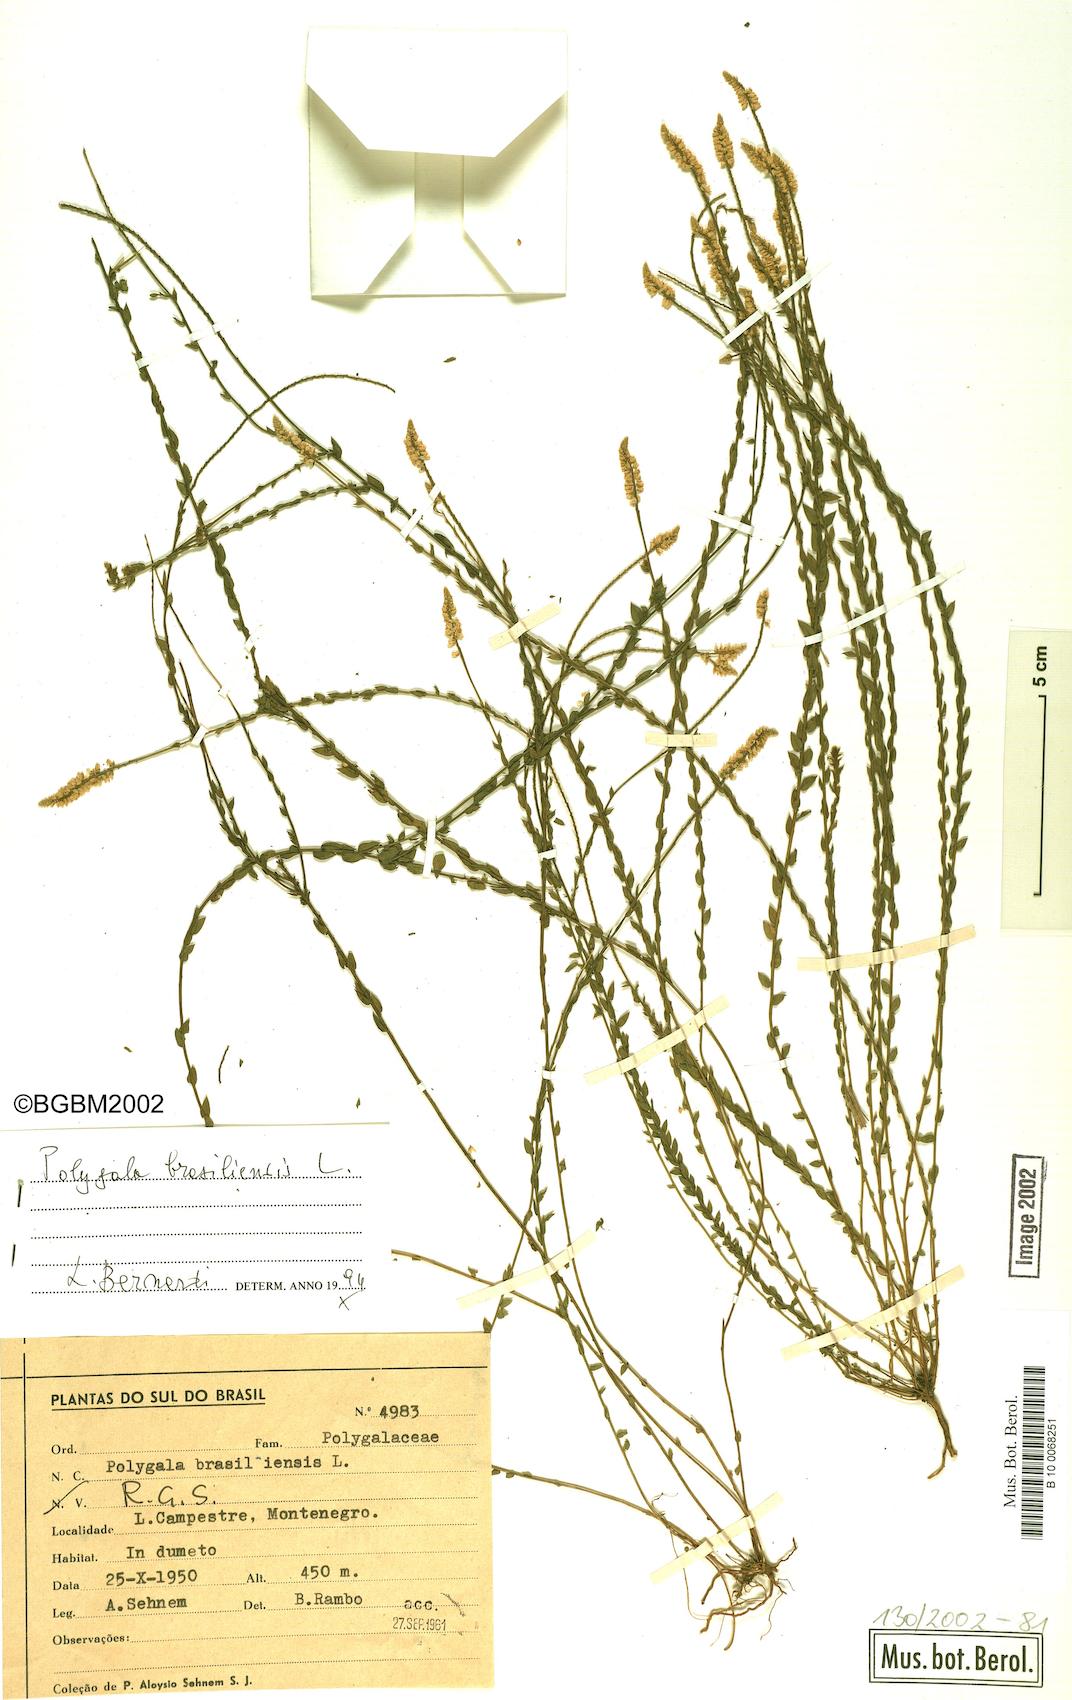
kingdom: Plantae
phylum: Tracheophyta
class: Magnoliopsida
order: Fabales
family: Polygalaceae
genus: Polygala
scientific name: Polygala brasiliensis
